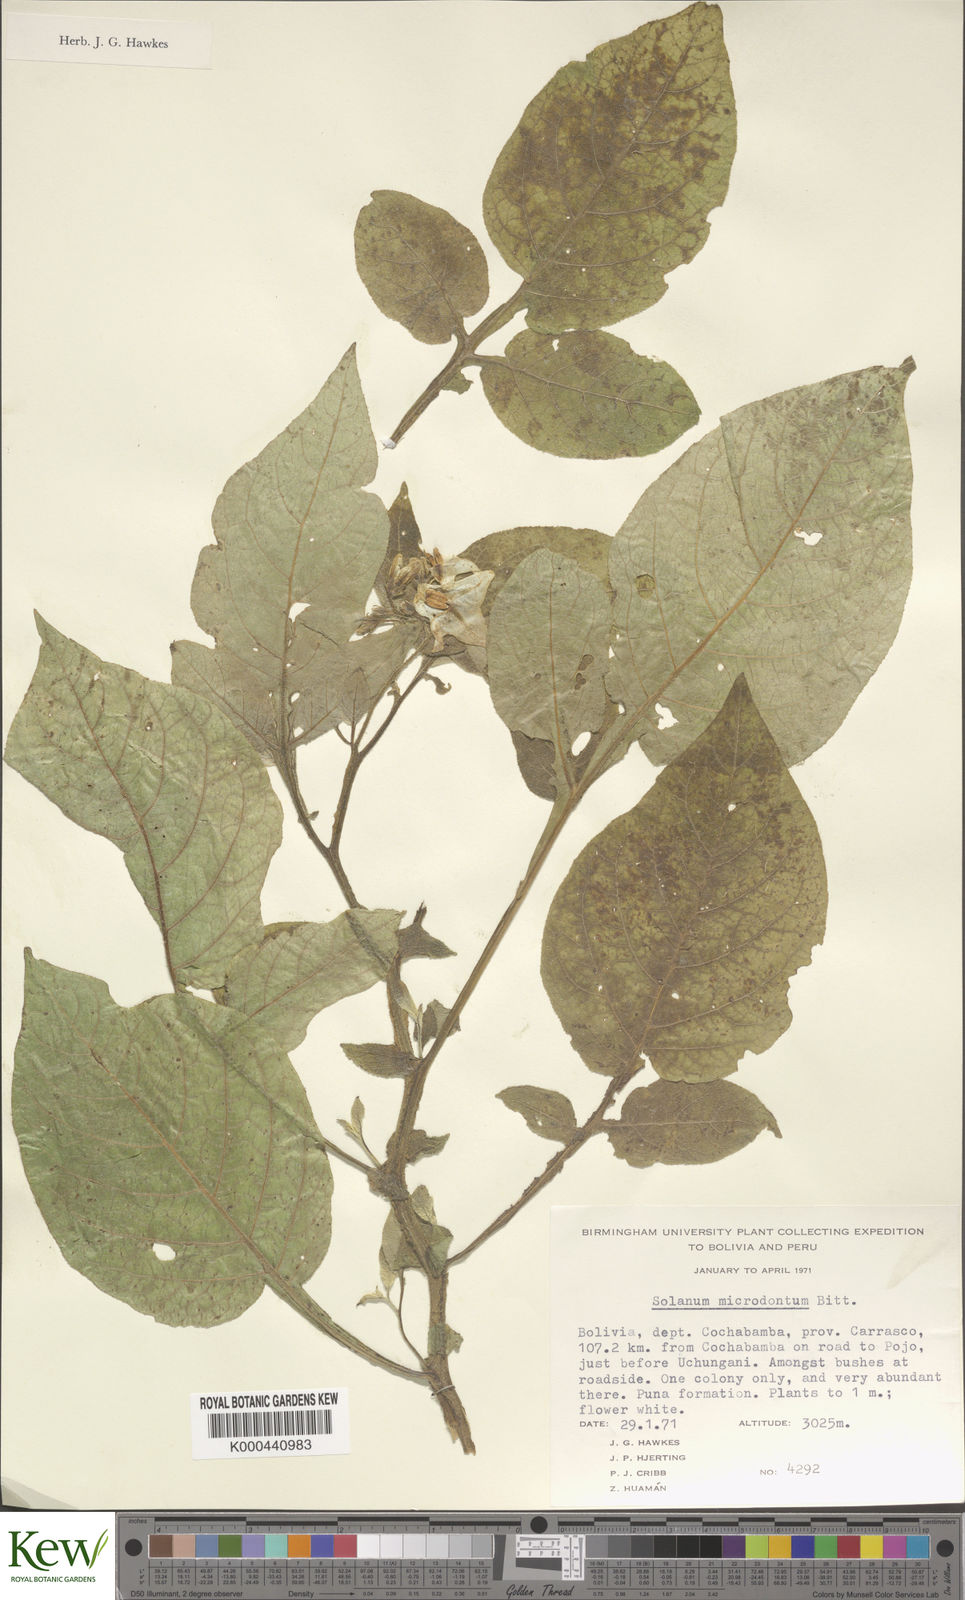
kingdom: Plantae
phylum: Tracheophyta
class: Magnoliopsida
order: Solanales
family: Solanaceae
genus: Solanum
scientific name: Solanum microdontum
